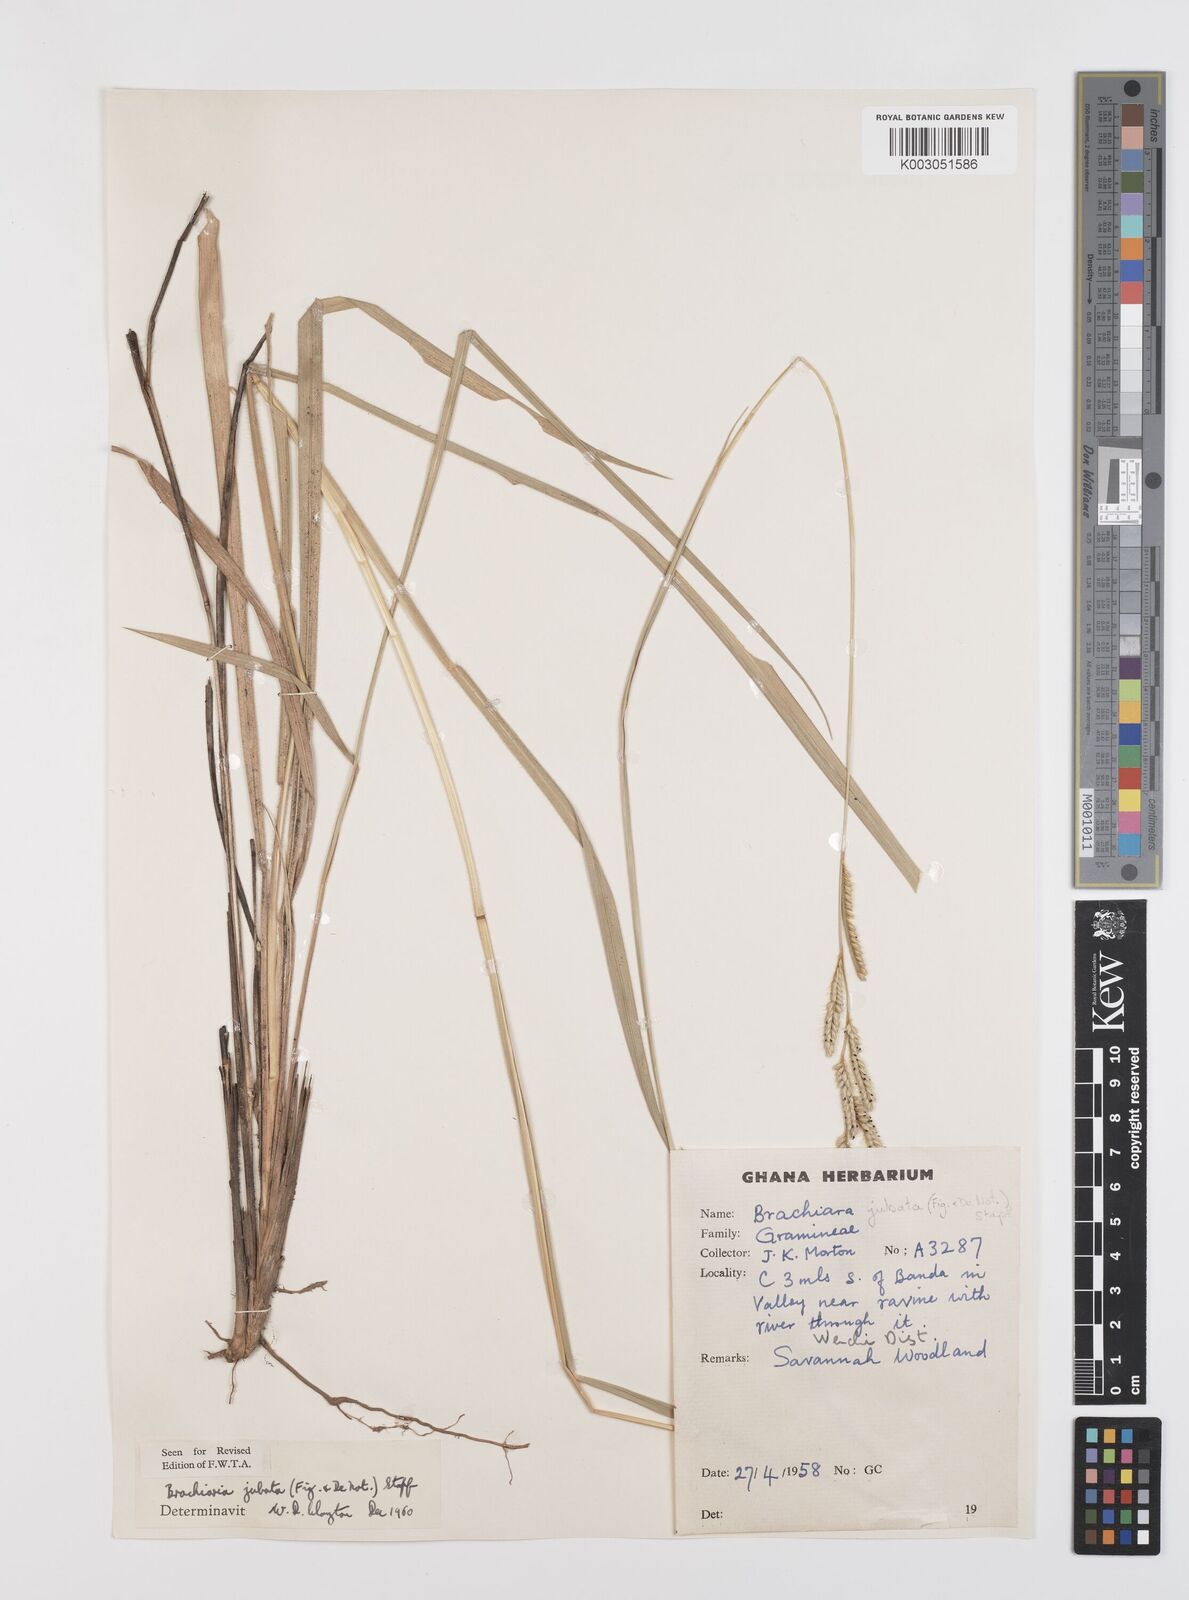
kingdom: Plantae
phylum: Tracheophyta
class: Liliopsida
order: Poales
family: Poaceae
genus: Urochloa
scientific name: Urochloa jubata
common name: Buffalograss
